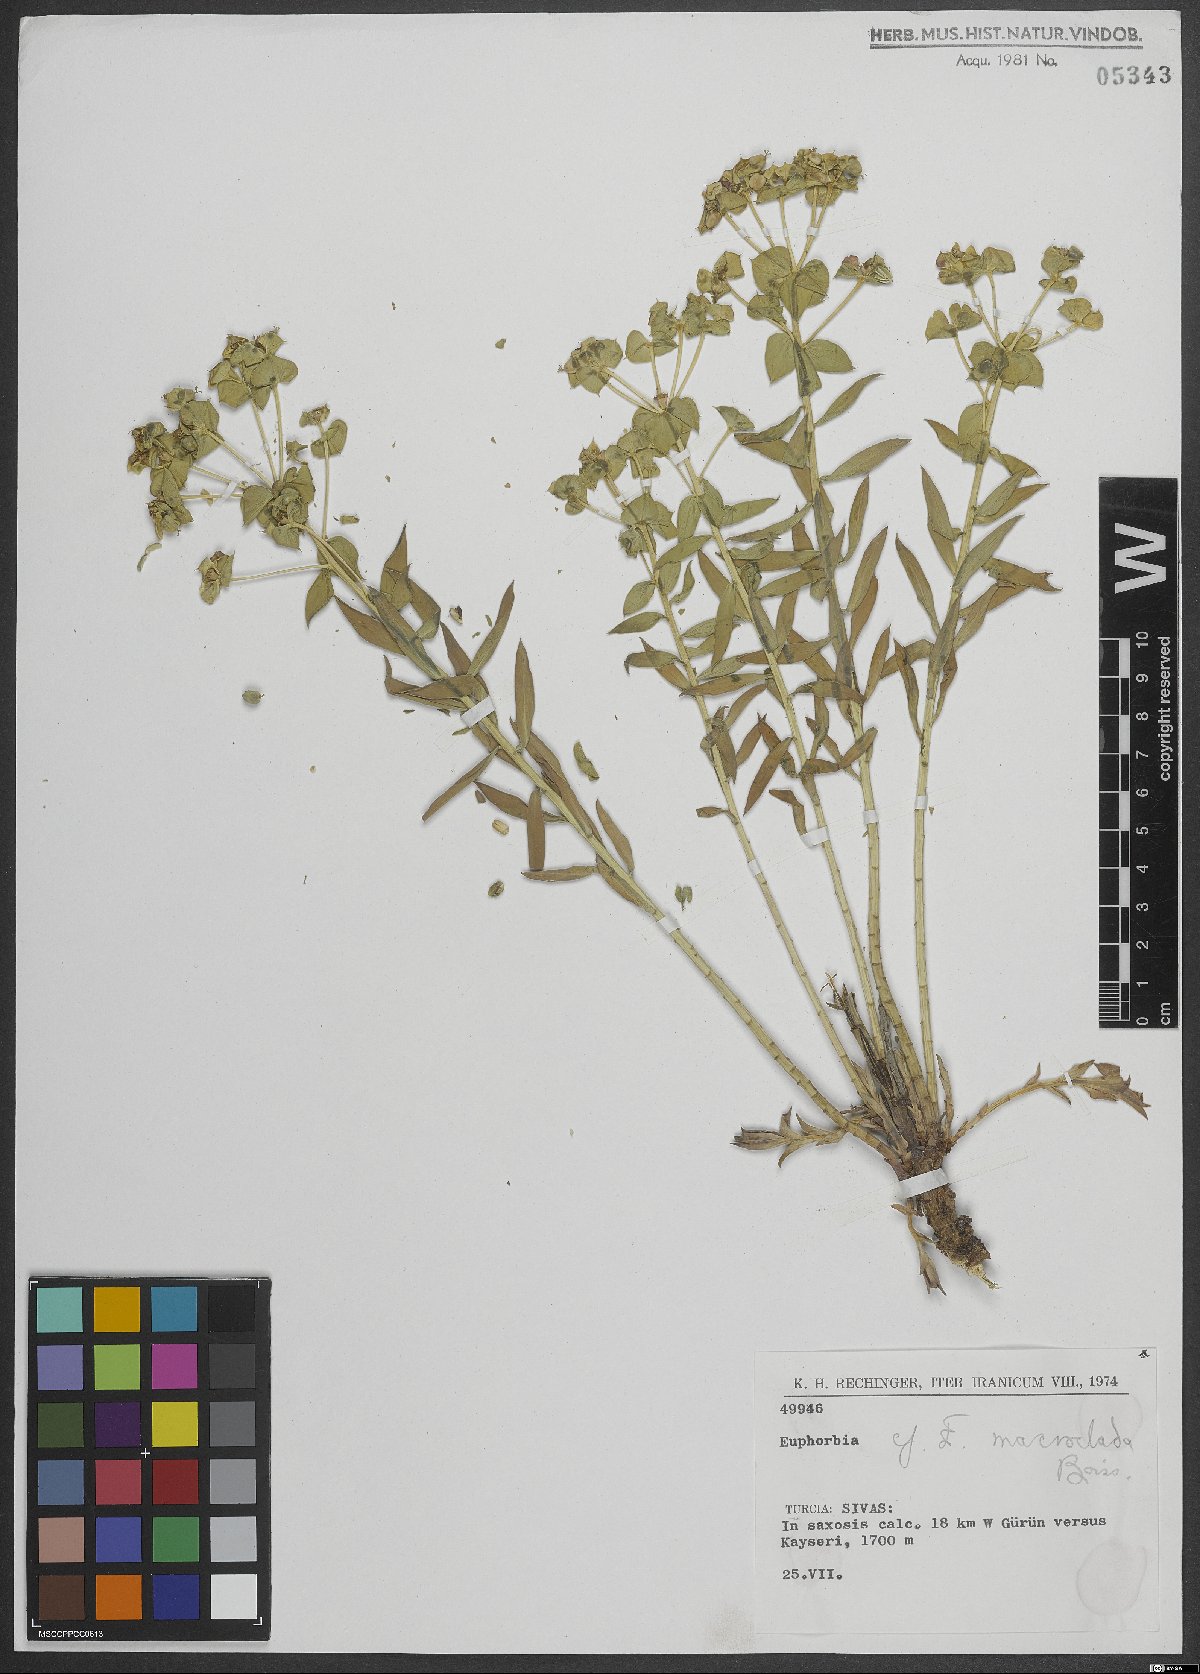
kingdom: Plantae
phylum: Tracheophyta
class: Magnoliopsida
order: Malpighiales
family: Euphorbiaceae
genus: Euphorbia
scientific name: Euphorbia macroclada
